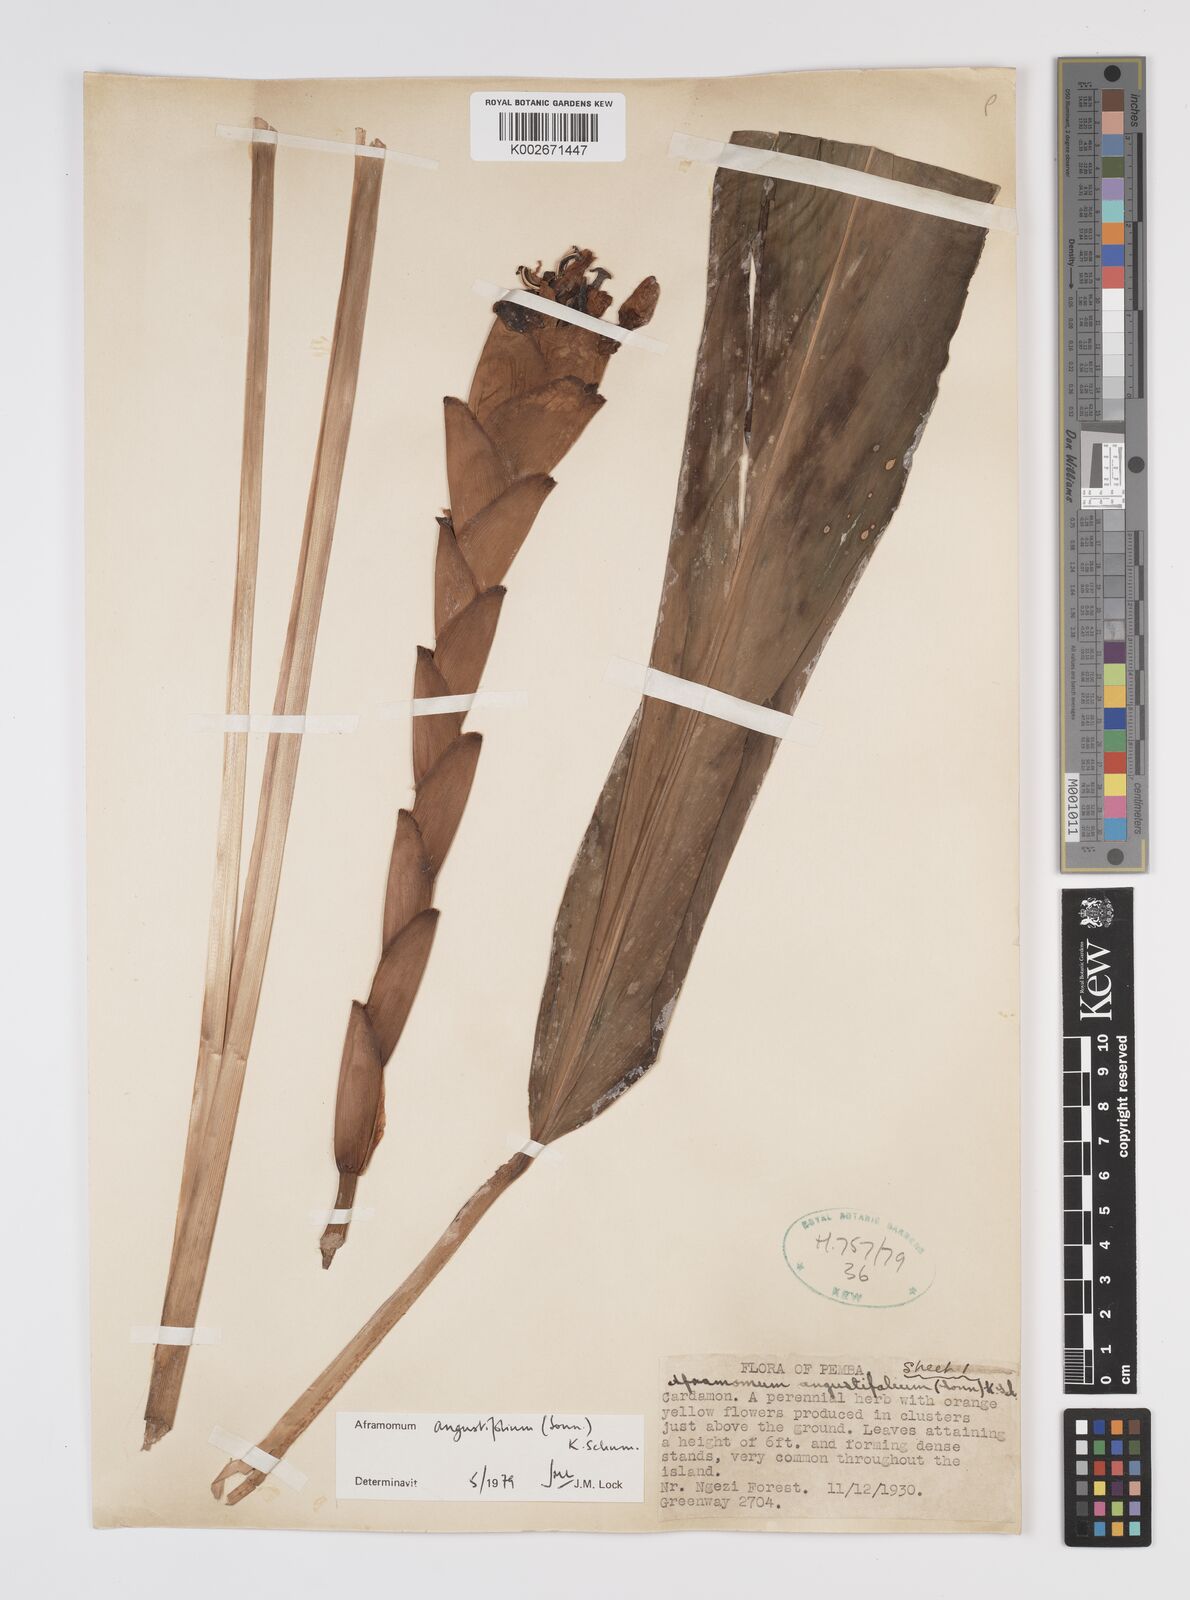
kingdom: Plantae
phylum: Tracheophyta
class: Liliopsida
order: Zingiberales
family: Zingiberaceae
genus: Aframomum
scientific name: Aframomum angustifolium
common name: Guinea grains
